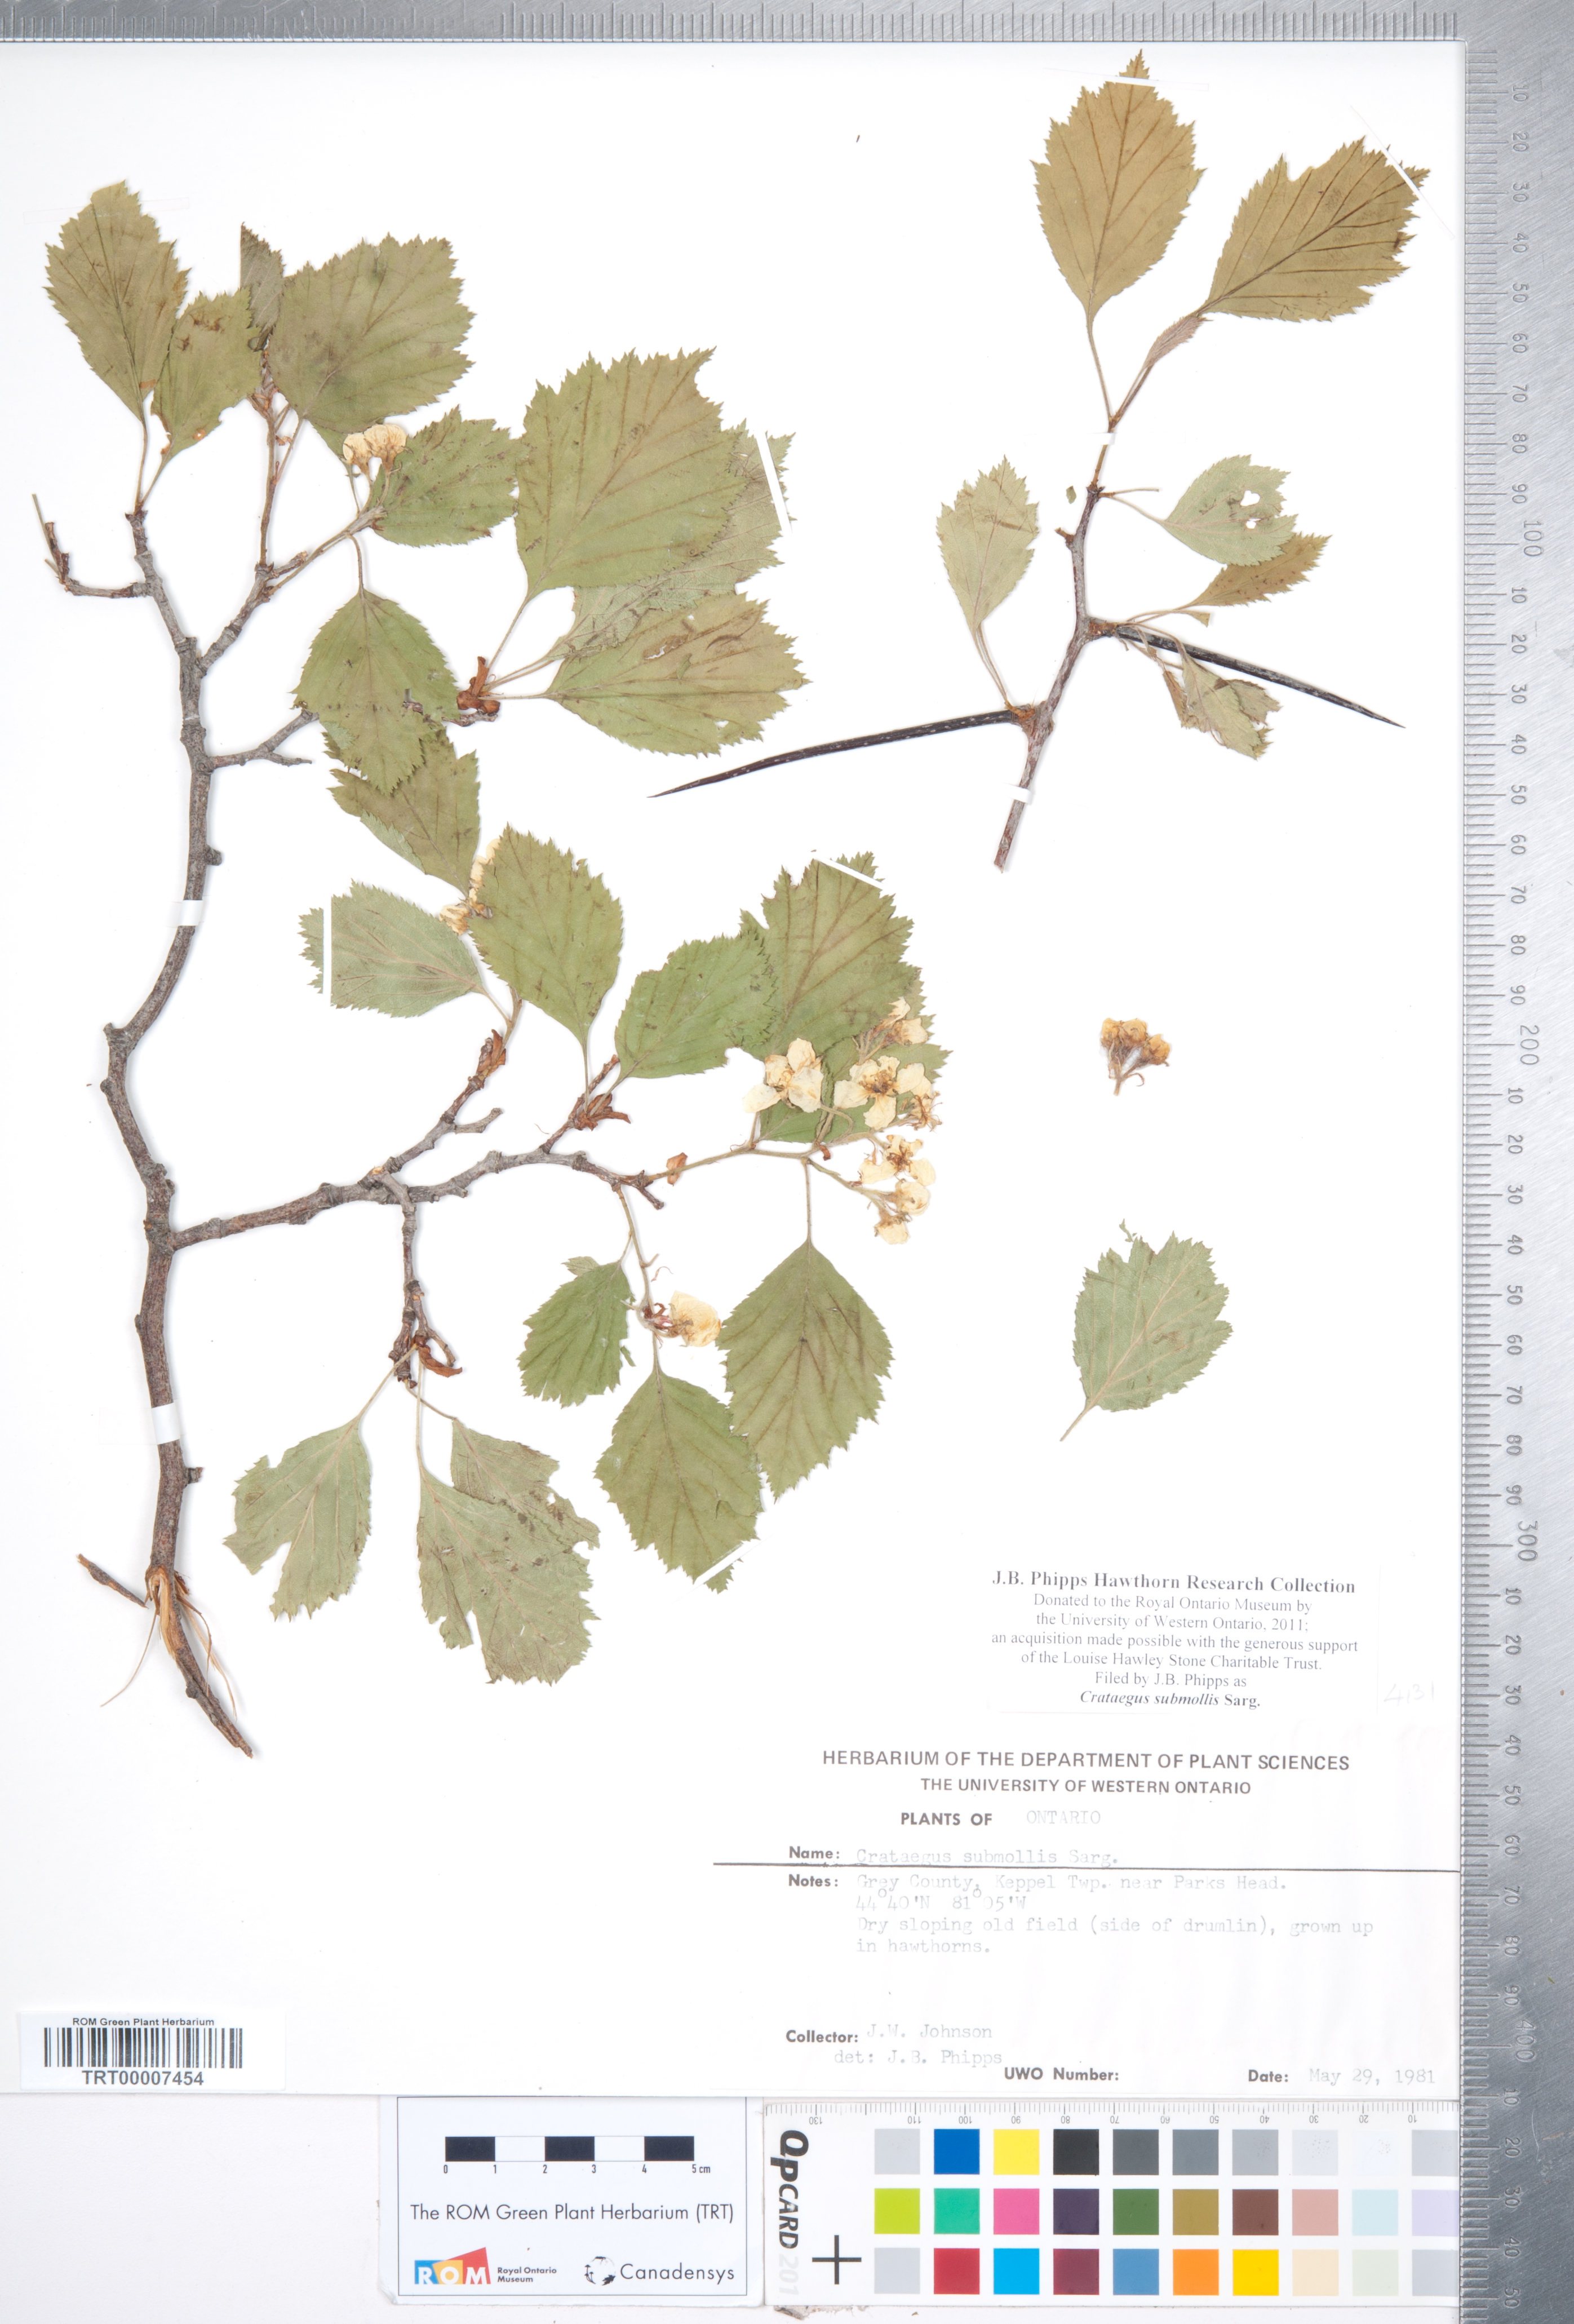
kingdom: Plantae
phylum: Tracheophyta
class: Magnoliopsida
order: Rosales
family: Rosaceae
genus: Crataegus
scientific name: Crataegus submollis
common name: Hairy cockspurthorn
